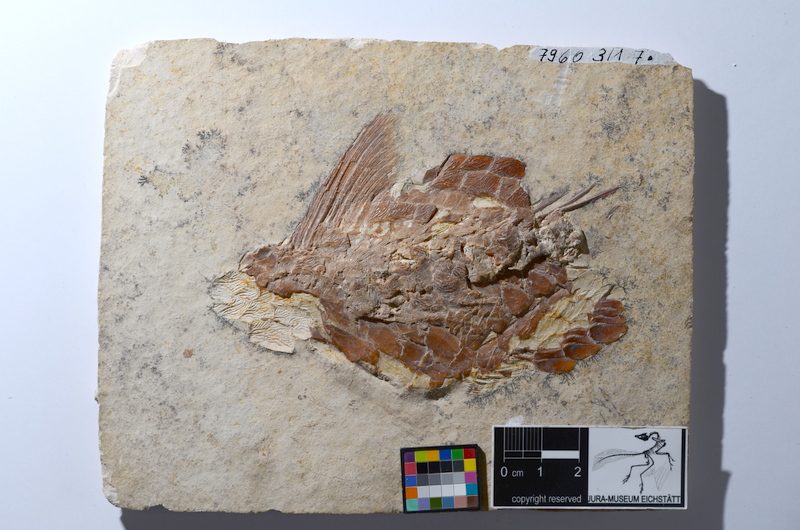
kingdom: Animalia
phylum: Chordata
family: Aspidorhynchidae
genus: Aspidorhynchus
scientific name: Aspidorhynchus acutirostris
